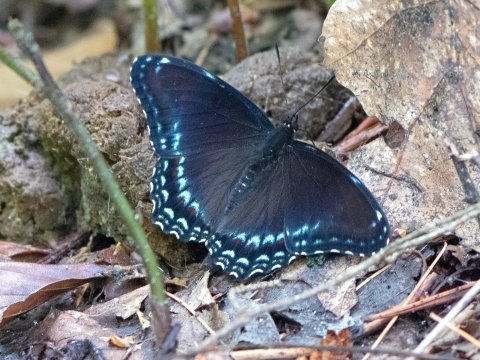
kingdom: Animalia
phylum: Arthropoda
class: Insecta
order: Lepidoptera
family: Nymphalidae
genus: Limenitis
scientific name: Limenitis arthemis
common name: Red-spotted Admiral
